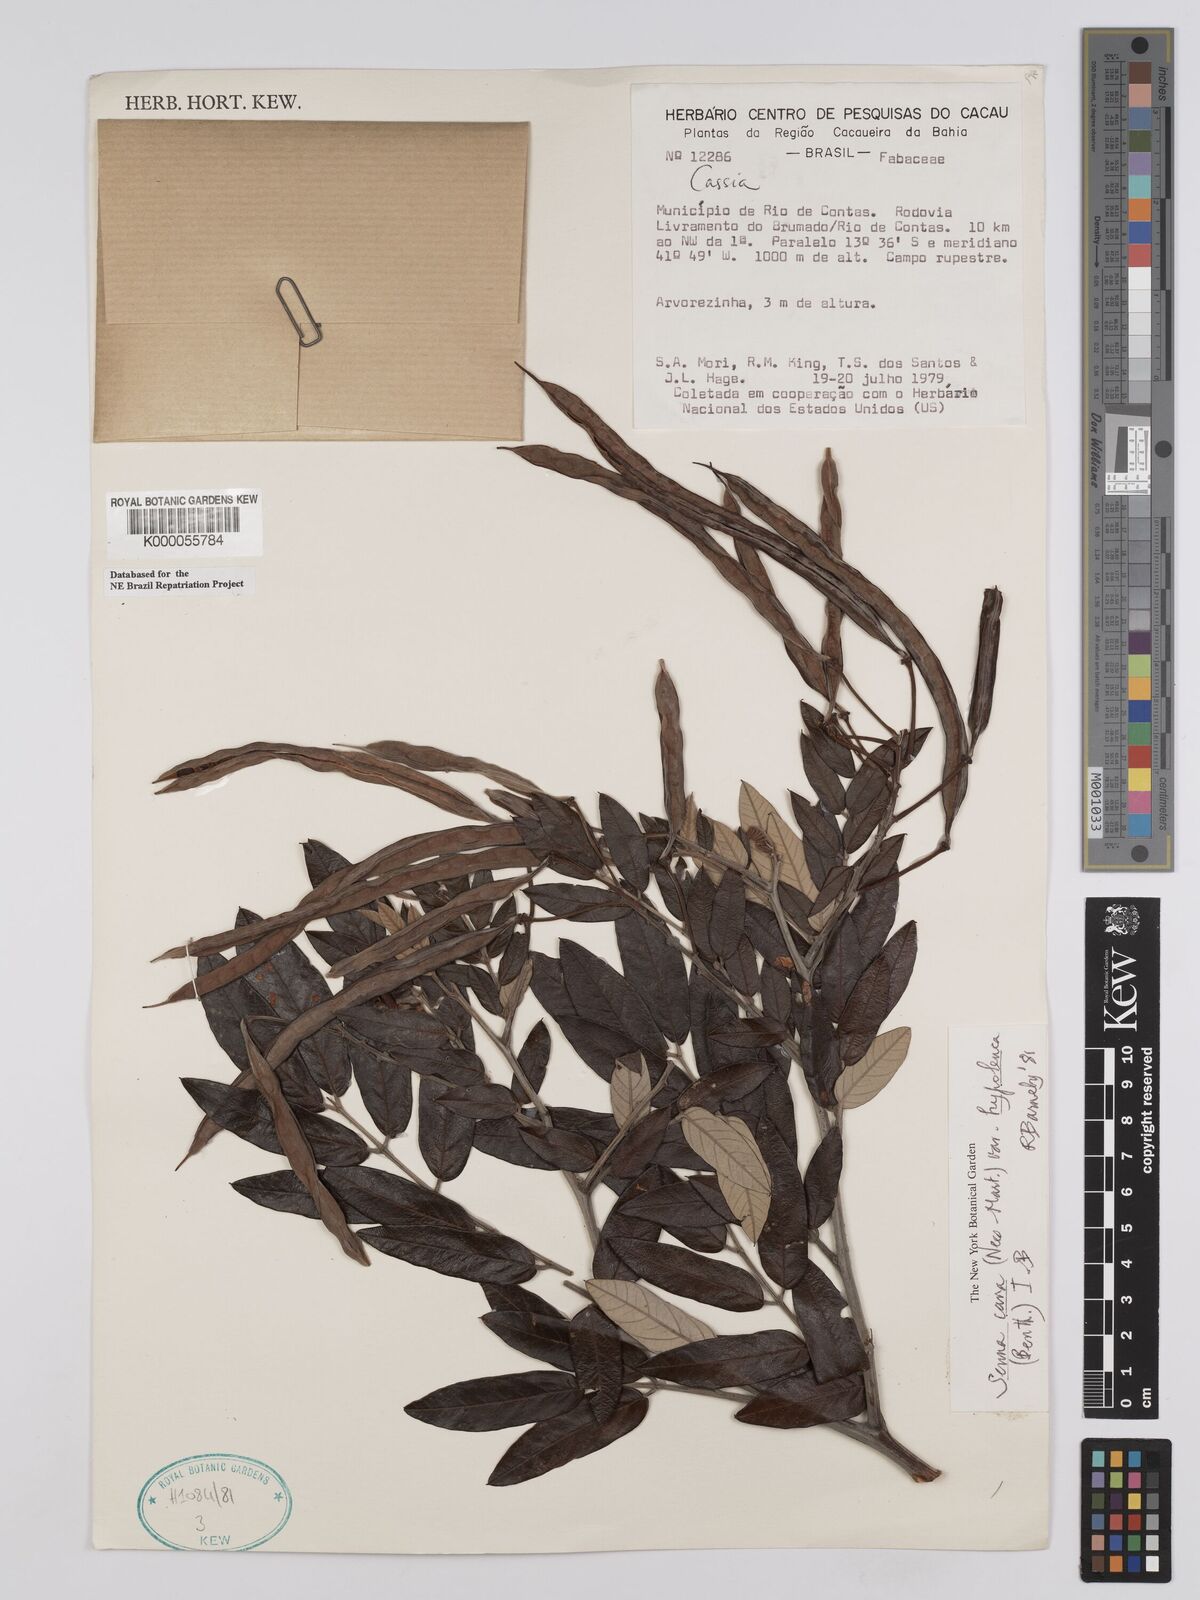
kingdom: Plantae
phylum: Tracheophyta
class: Magnoliopsida
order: Fabales
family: Fabaceae
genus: Senna
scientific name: Senna cana
